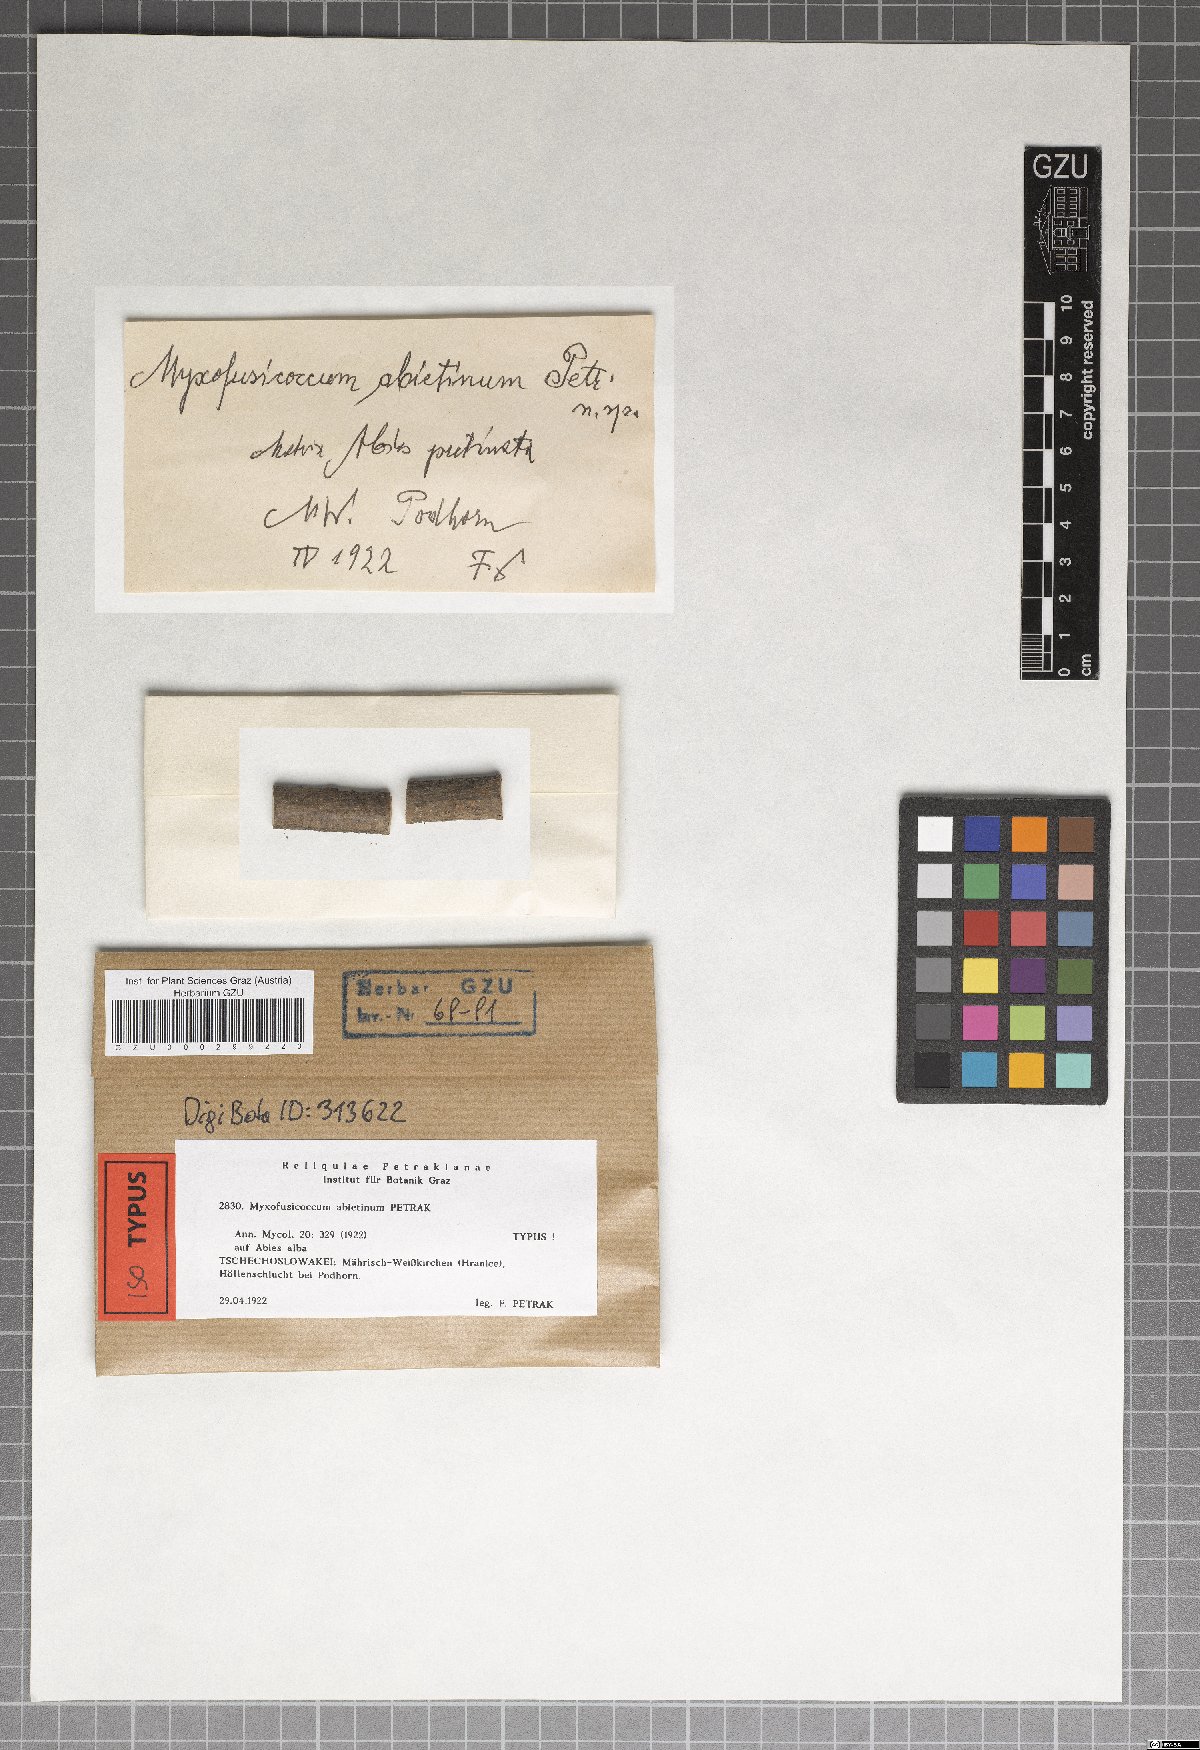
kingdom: Fungi
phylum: Ascomycota
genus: Myxofusicoccum
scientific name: Myxofusicoccum abietinum
